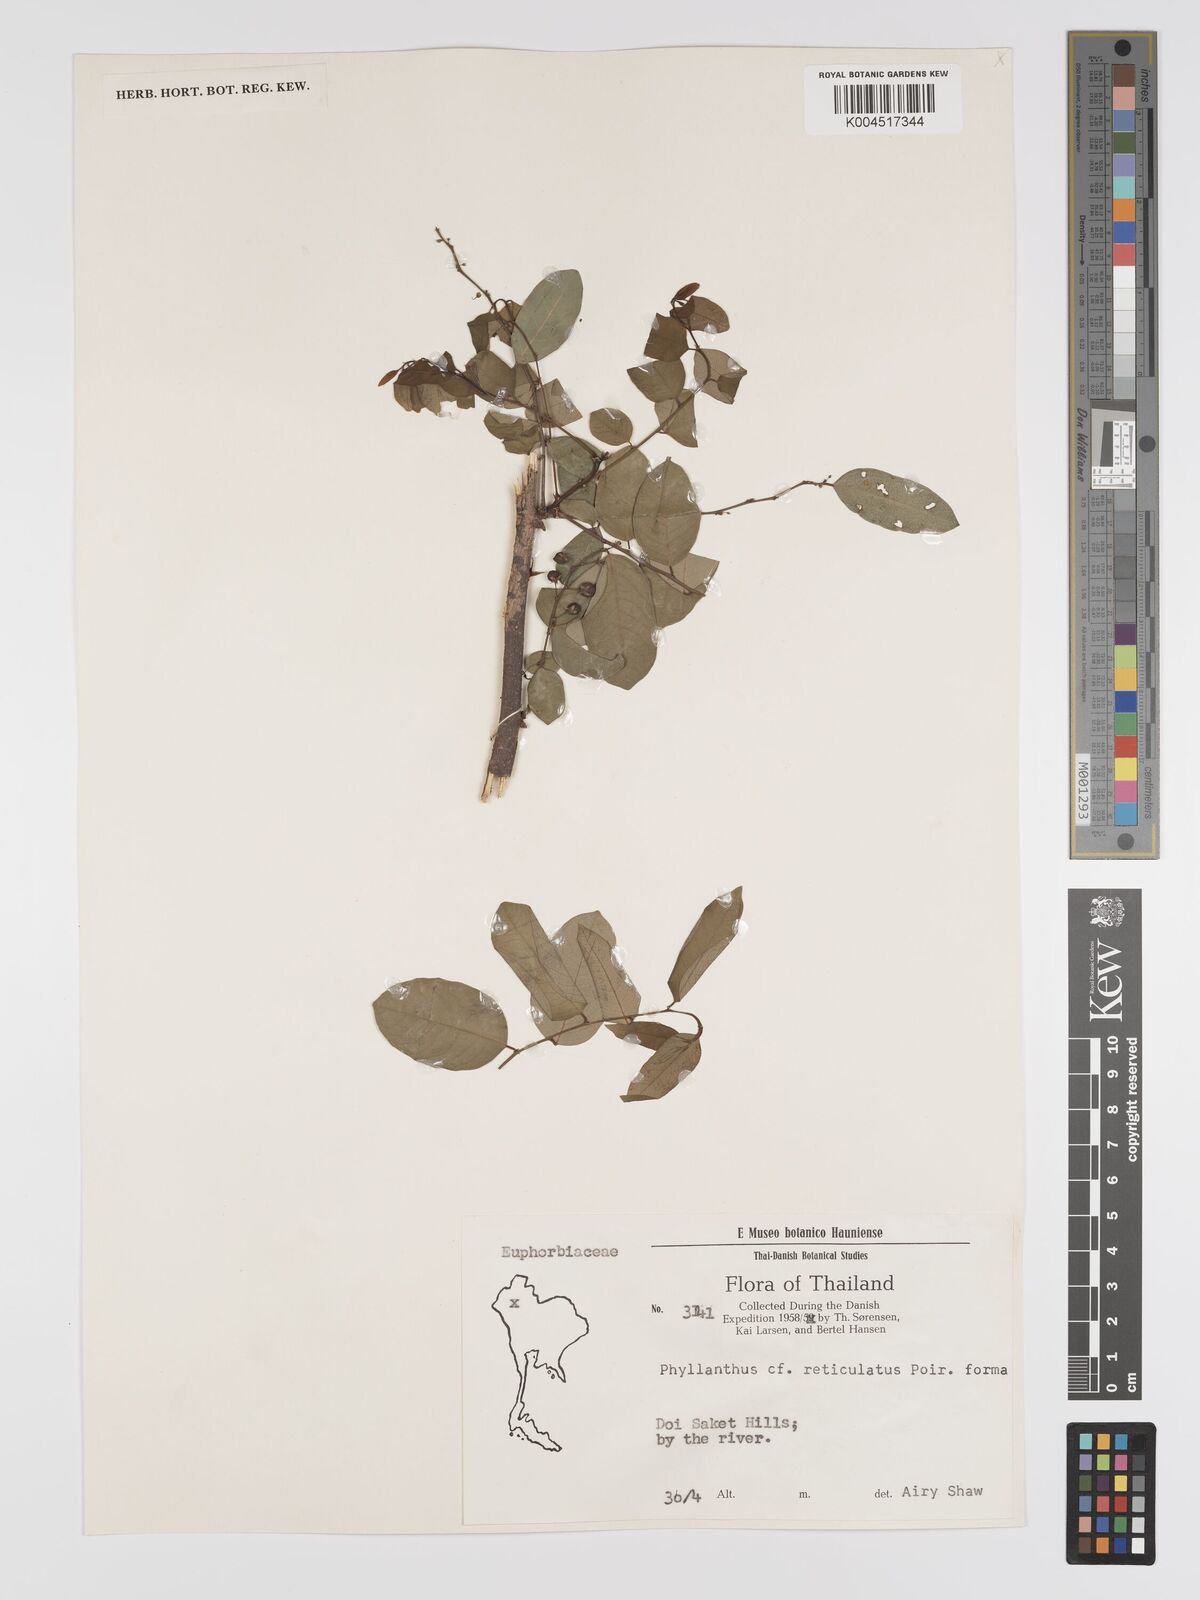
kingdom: Plantae
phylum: Tracheophyta
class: Magnoliopsida
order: Malpighiales
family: Phyllanthaceae
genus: Phyllanthus
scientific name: Phyllanthus reticulatus
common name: Potato bush
